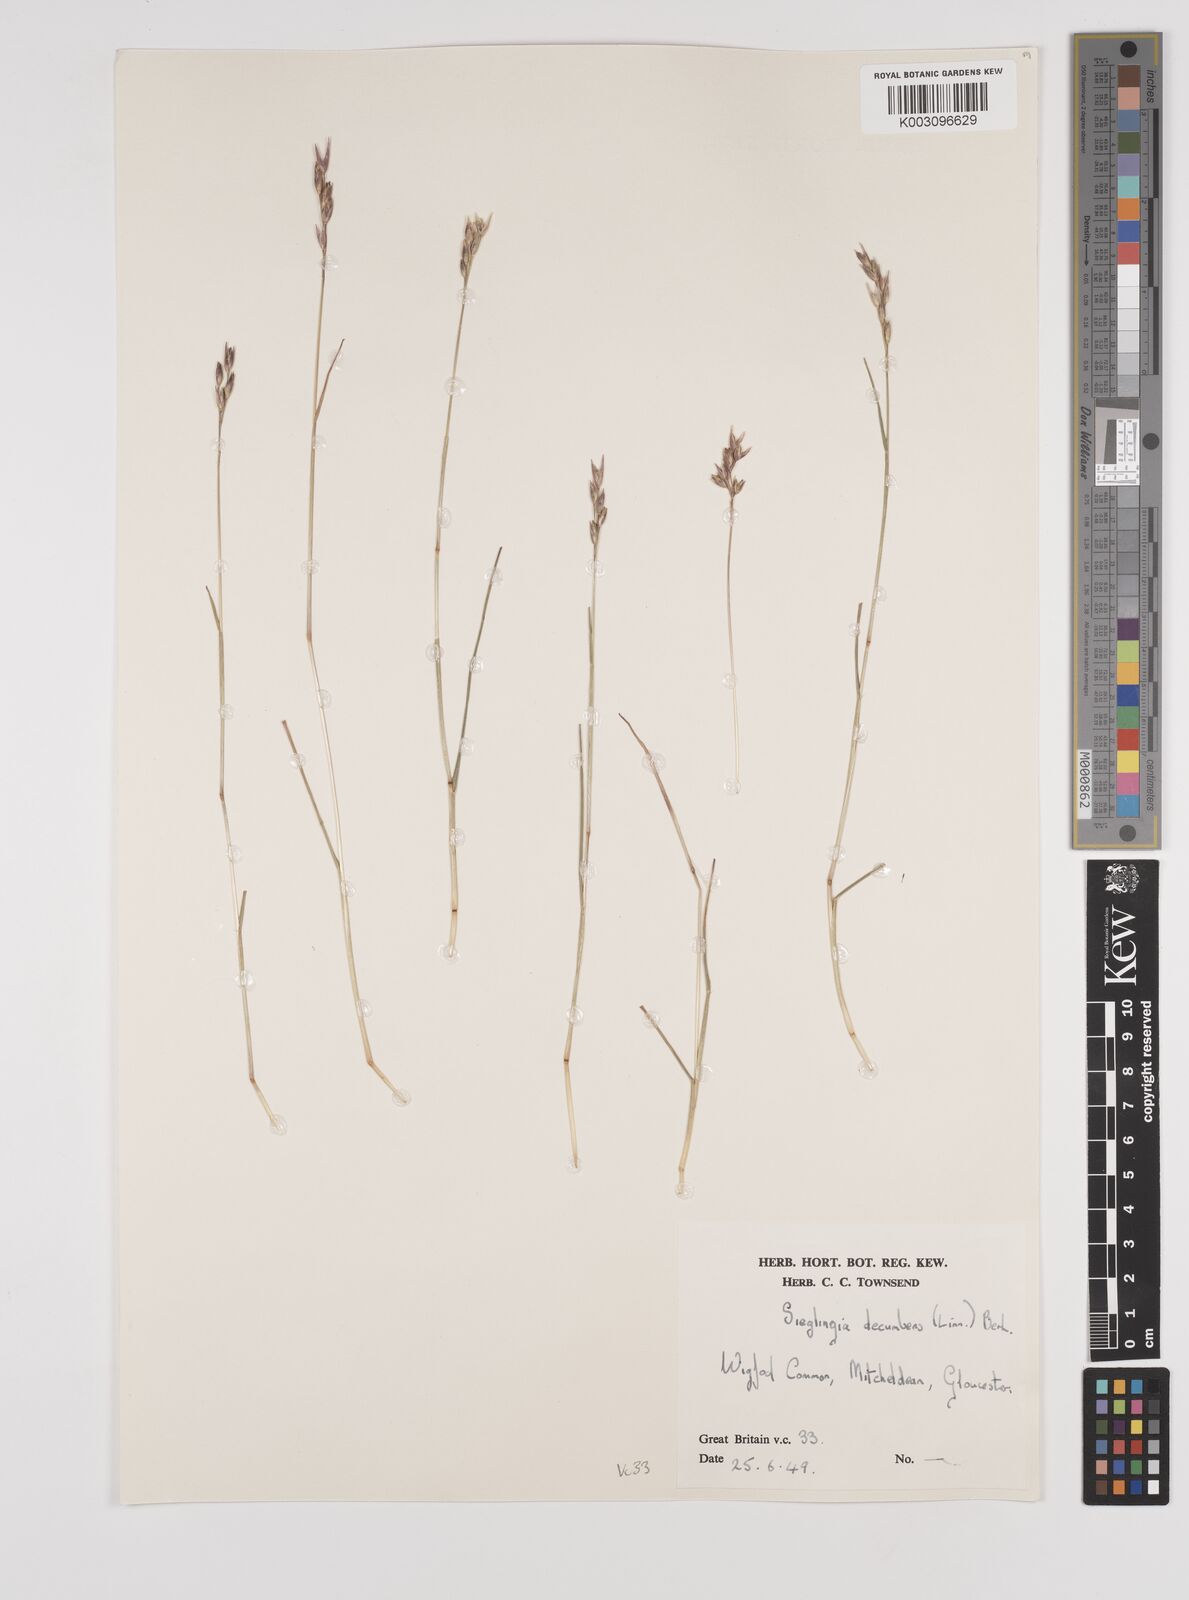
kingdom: Plantae
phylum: Tracheophyta
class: Liliopsida
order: Poales
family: Poaceae
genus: Danthonia
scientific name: Danthonia decumbens
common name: Common heathgrass
